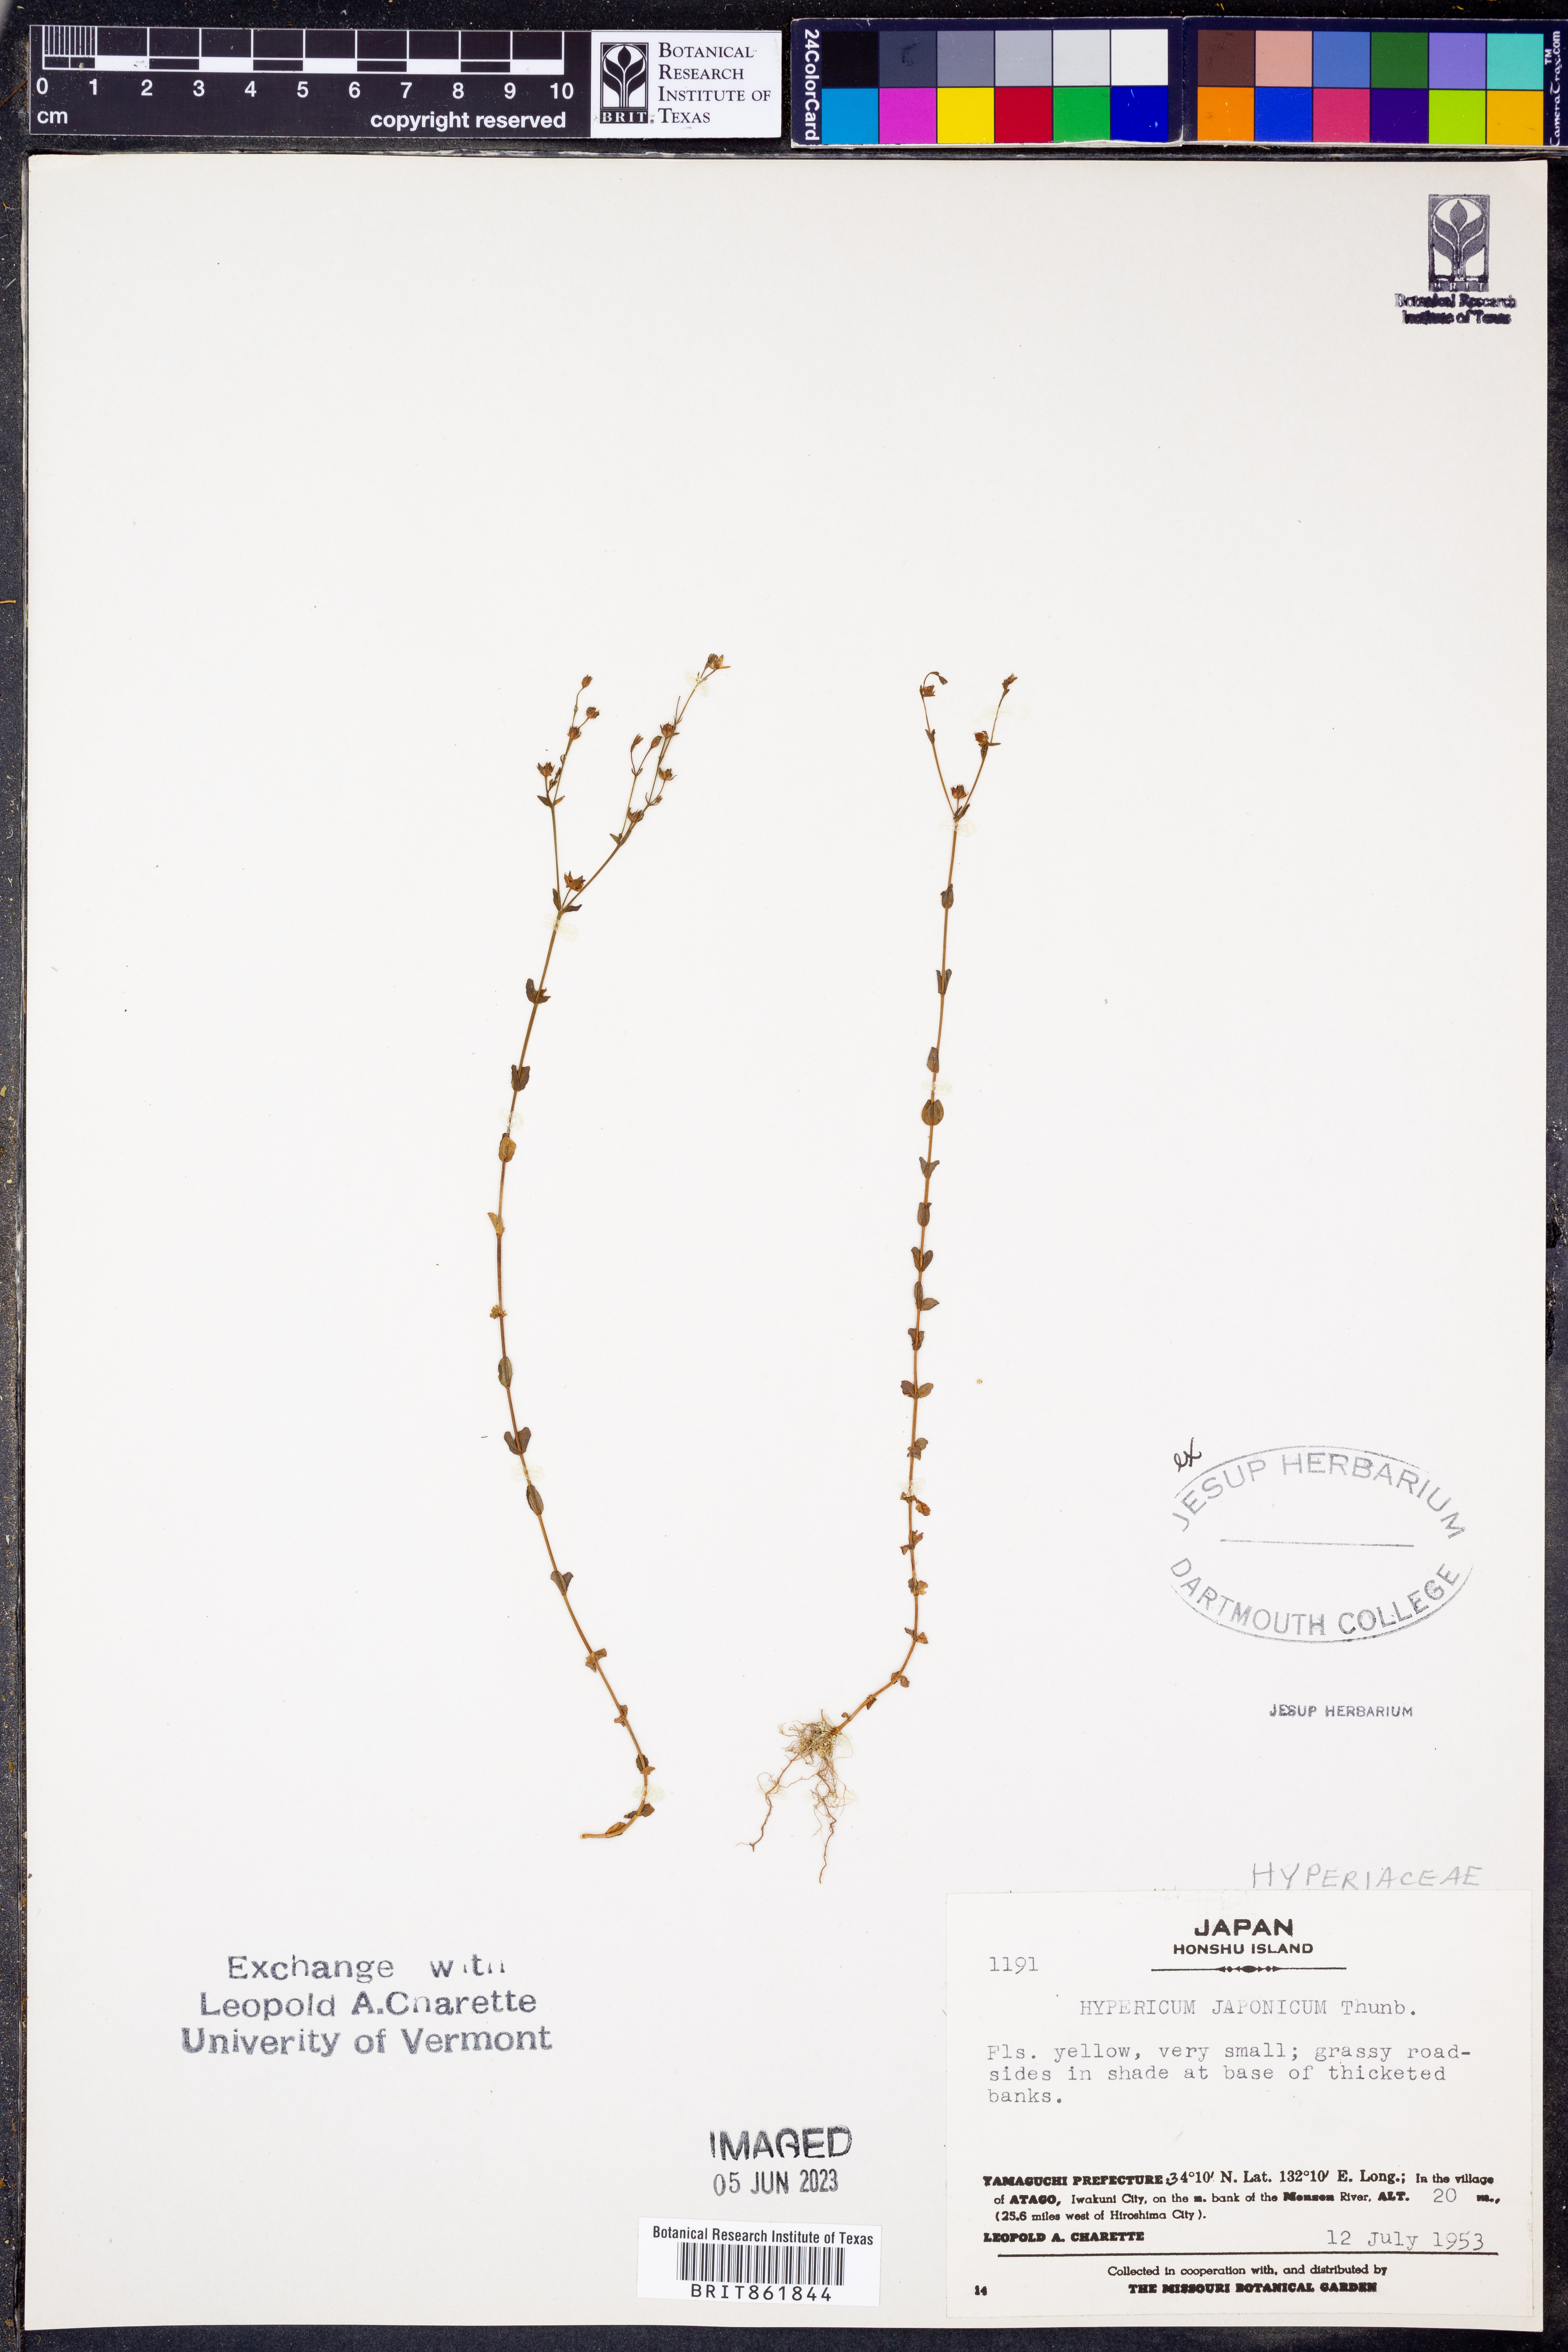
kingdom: Plantae
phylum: Tracheophyta
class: Magnoliopsida
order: Malpighiales
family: Hypericaceae
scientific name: Hypericaceae
